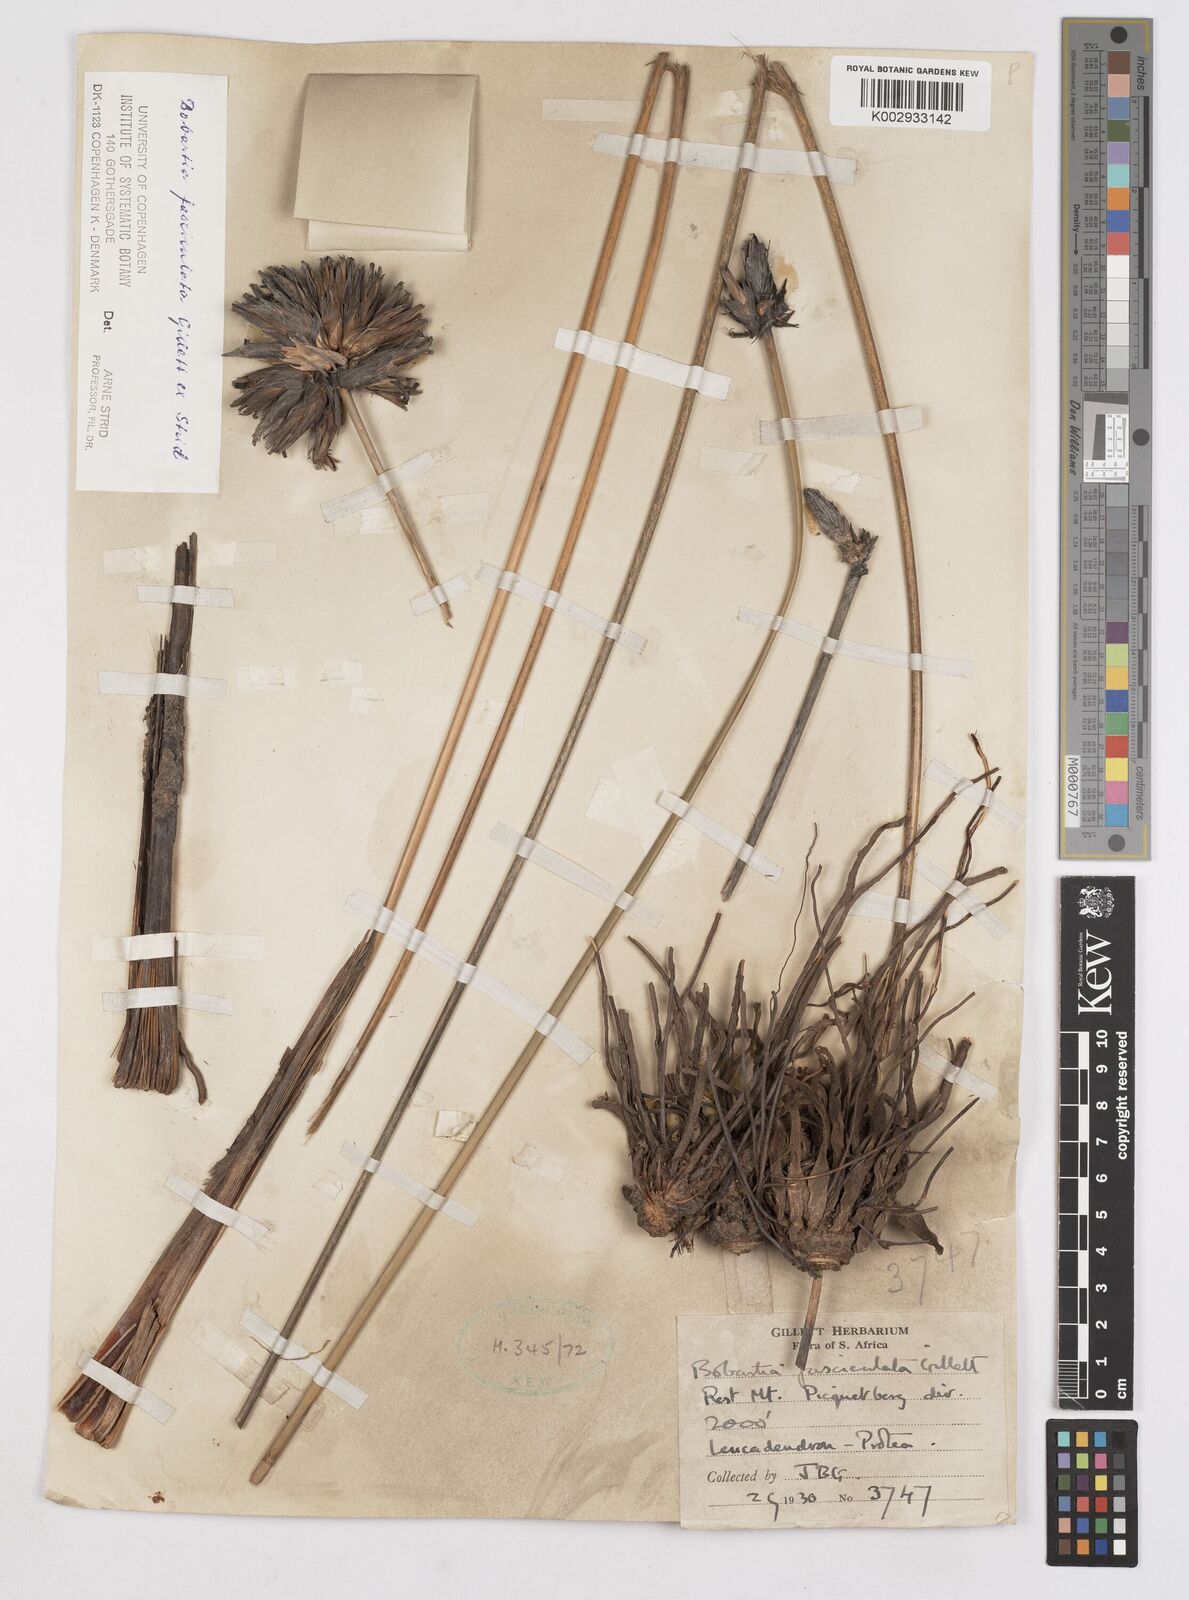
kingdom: Plantae
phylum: Tracheophyta
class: Liliopsida
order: Asparagales
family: Iridaceae
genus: Bobartia
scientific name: Bobartia fasciculata
